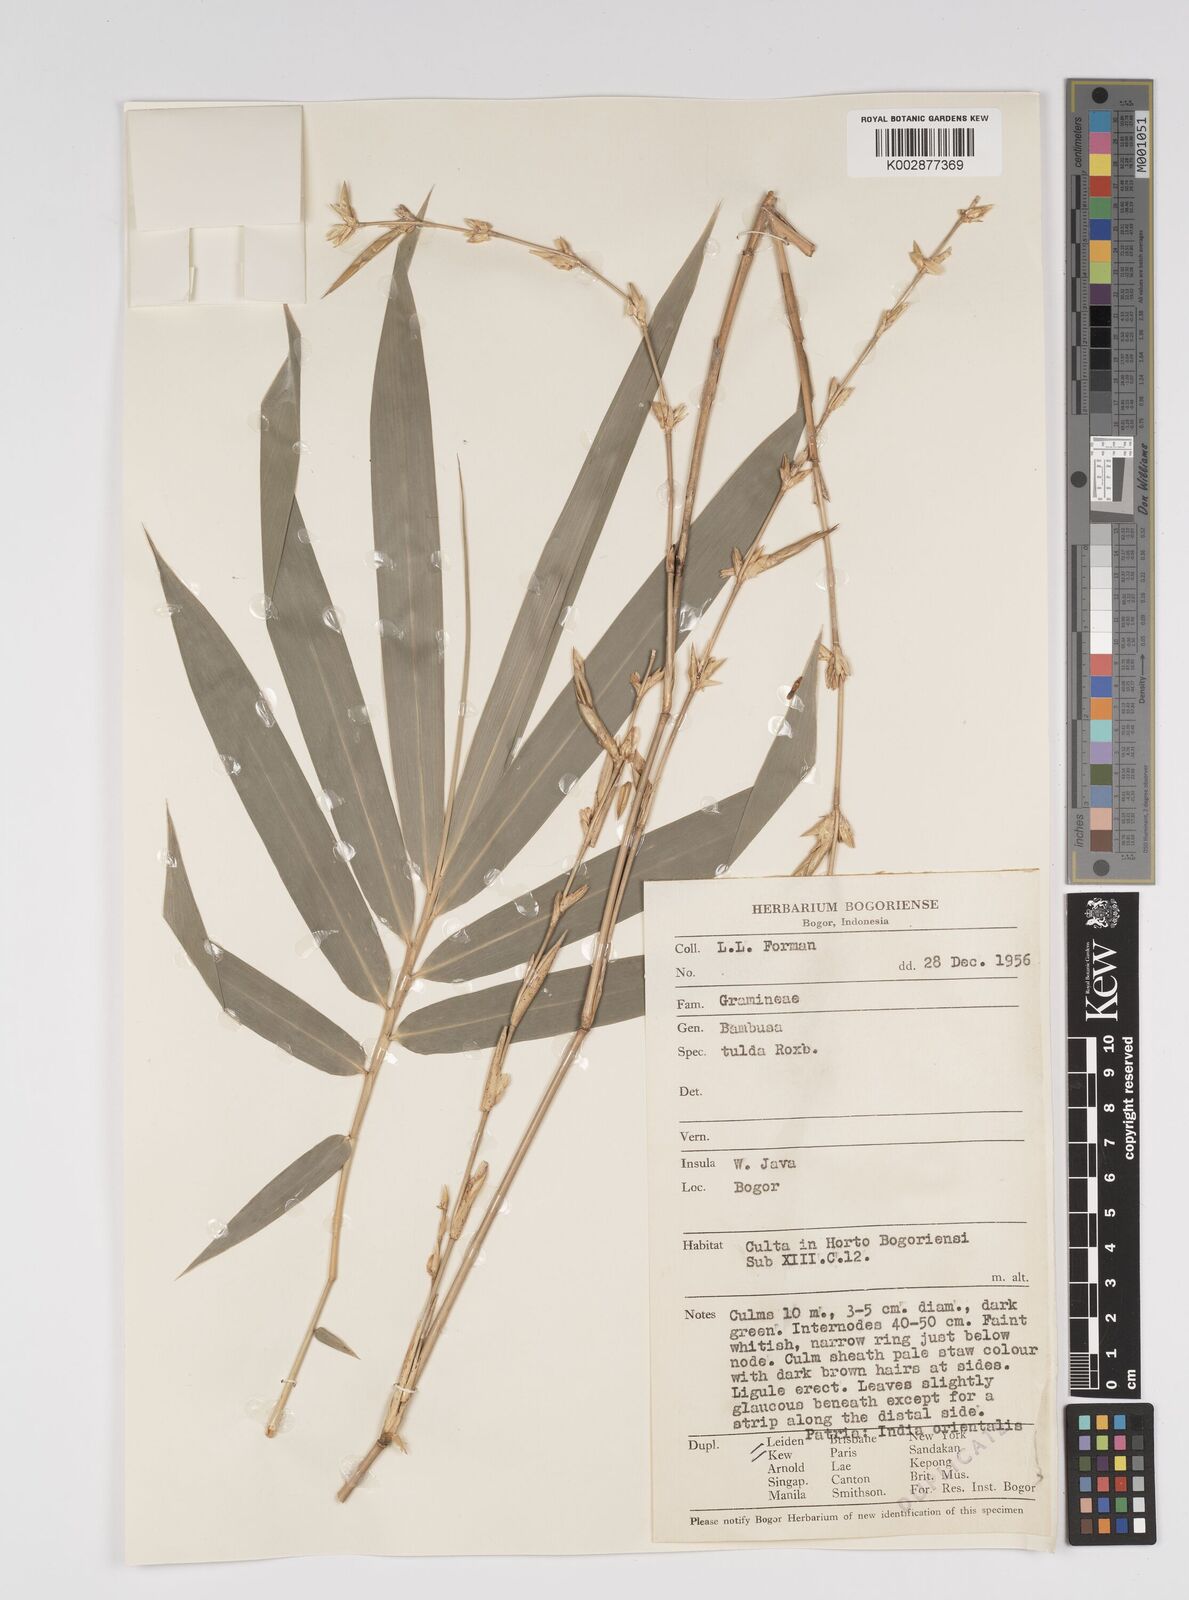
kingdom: Plantae
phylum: Tracheophyta
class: Liliopsida
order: Poales
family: Poaceae
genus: Bambusa
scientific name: Bambusa tulda
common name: Bengal bamboo
